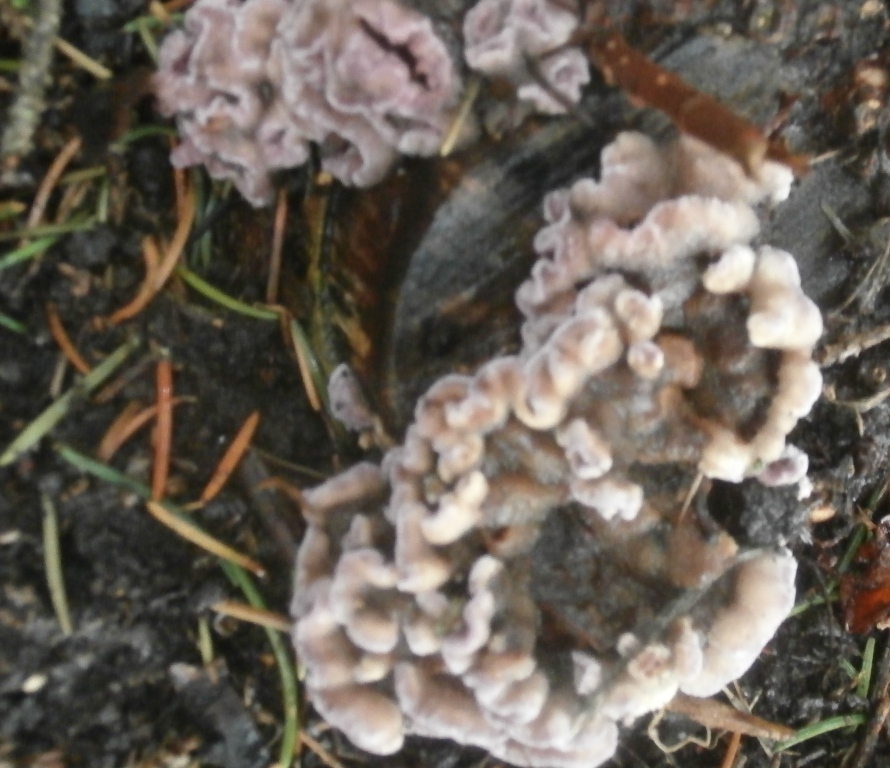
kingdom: Fungi
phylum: Basidiomycota
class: Agaricomycetes
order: Agaricales
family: Cyphellaceae
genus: Chondrostereum
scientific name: Chondrostereum purpureum
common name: purpurlædersvamp
